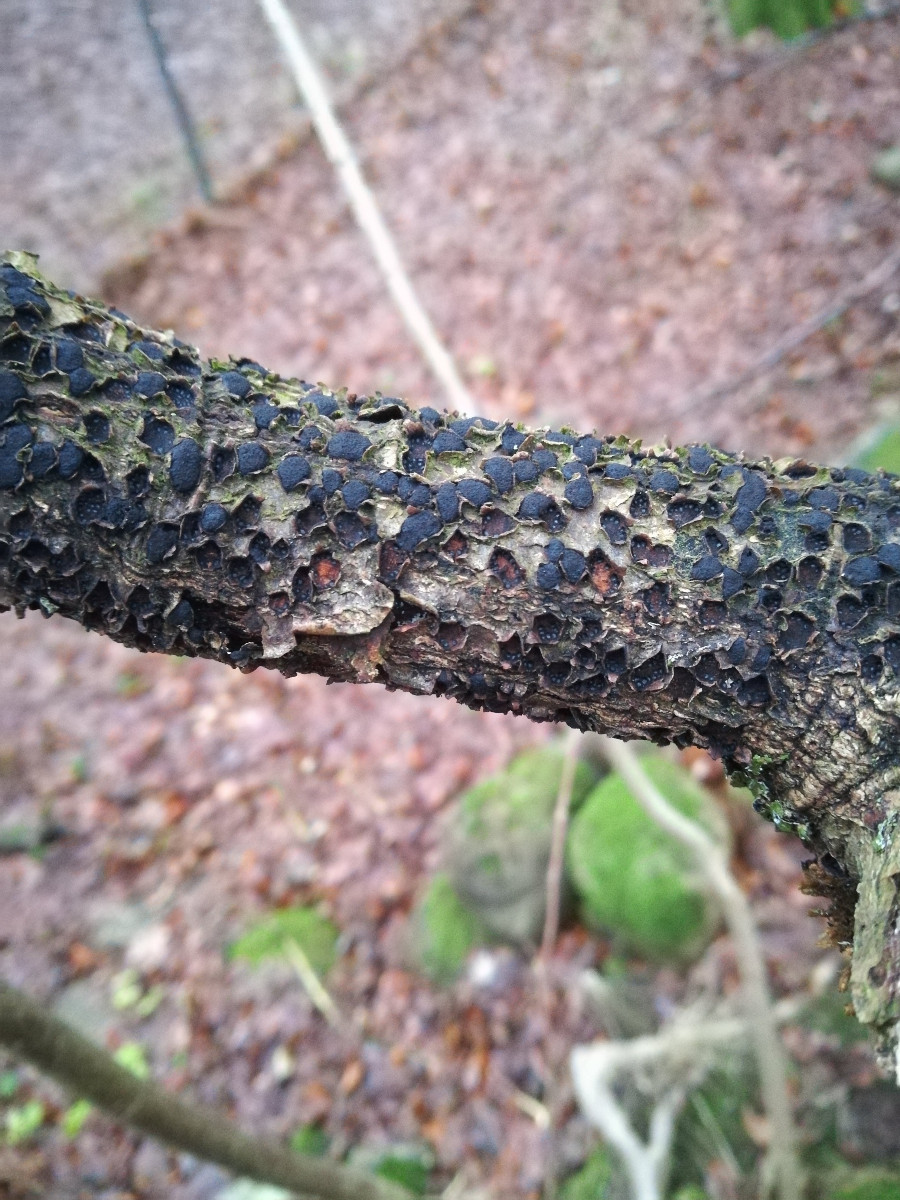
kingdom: Fungi
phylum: Ascomycota
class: Sordariomycetes
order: Xylariales
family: Diatrypaceae
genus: Diatrypella
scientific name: Diatrypella quercina
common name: ege-kulskorpe
